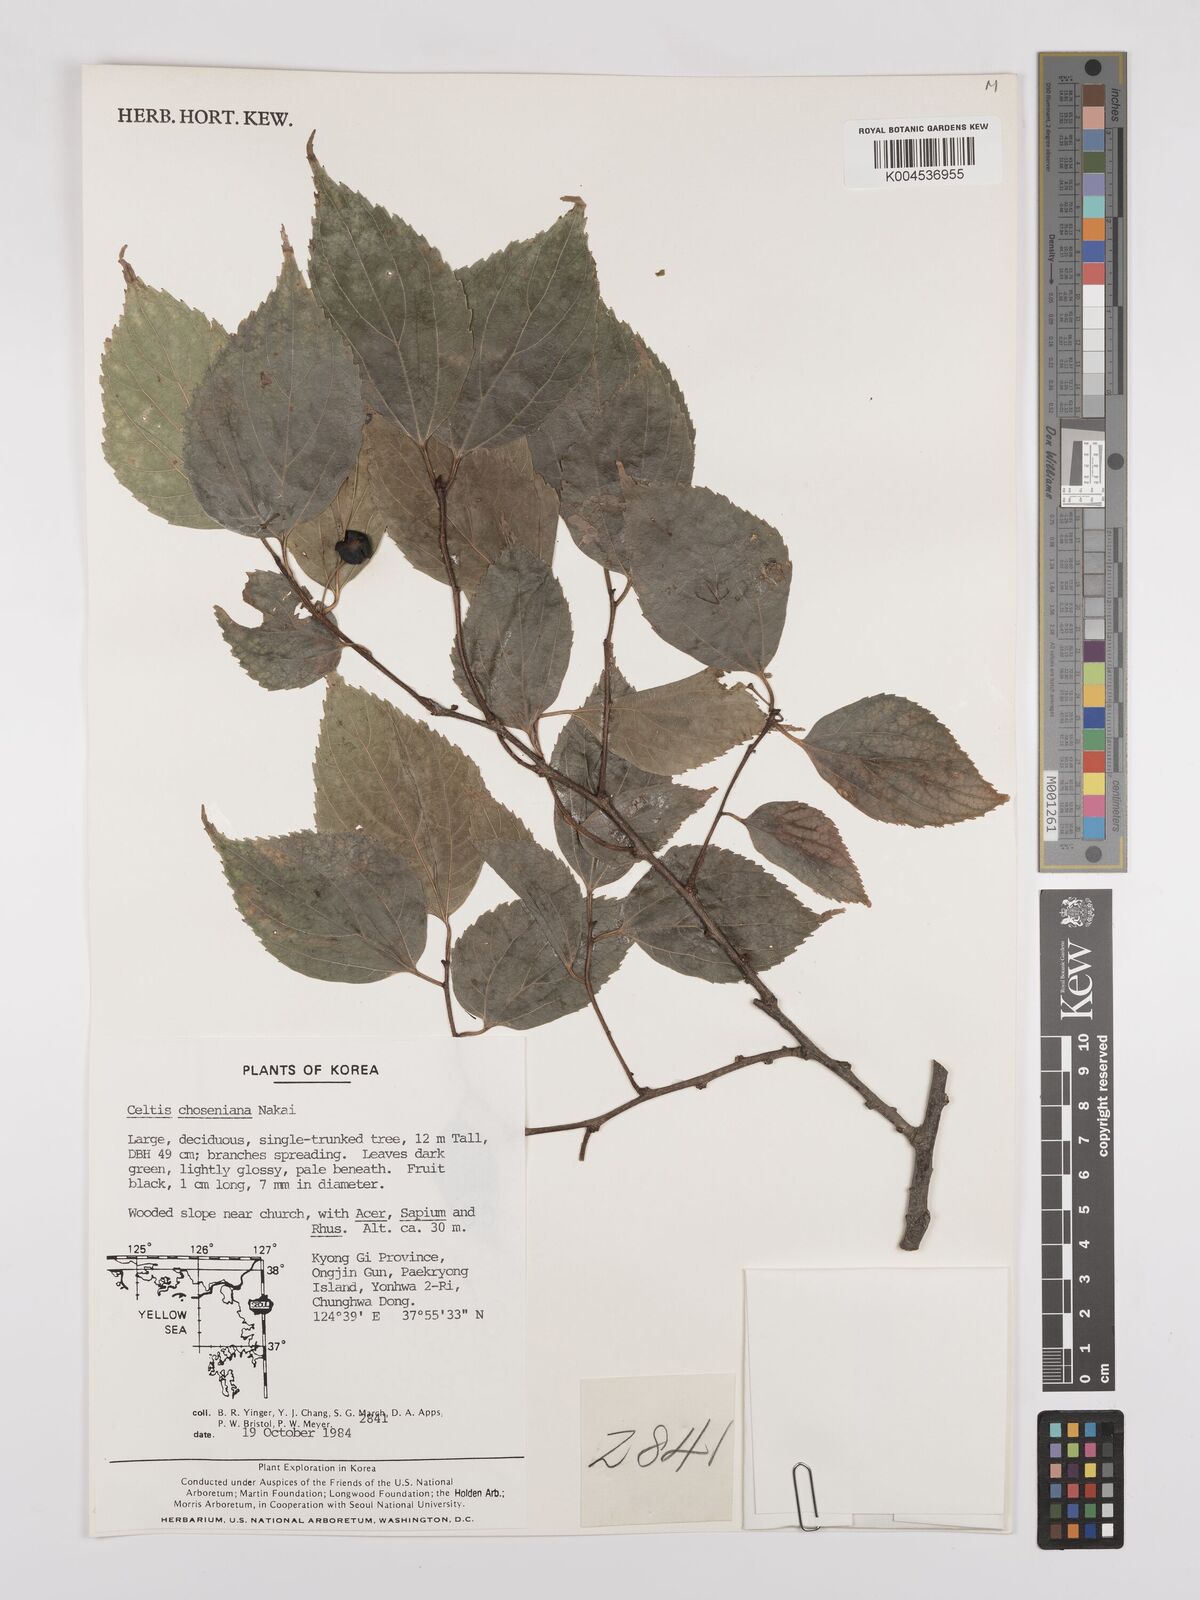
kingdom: Plantae
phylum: Tracheophyta
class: Magnoliopsida
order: Rosales
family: Cannabaceae
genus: Celtis
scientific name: Celtis jessoensis
